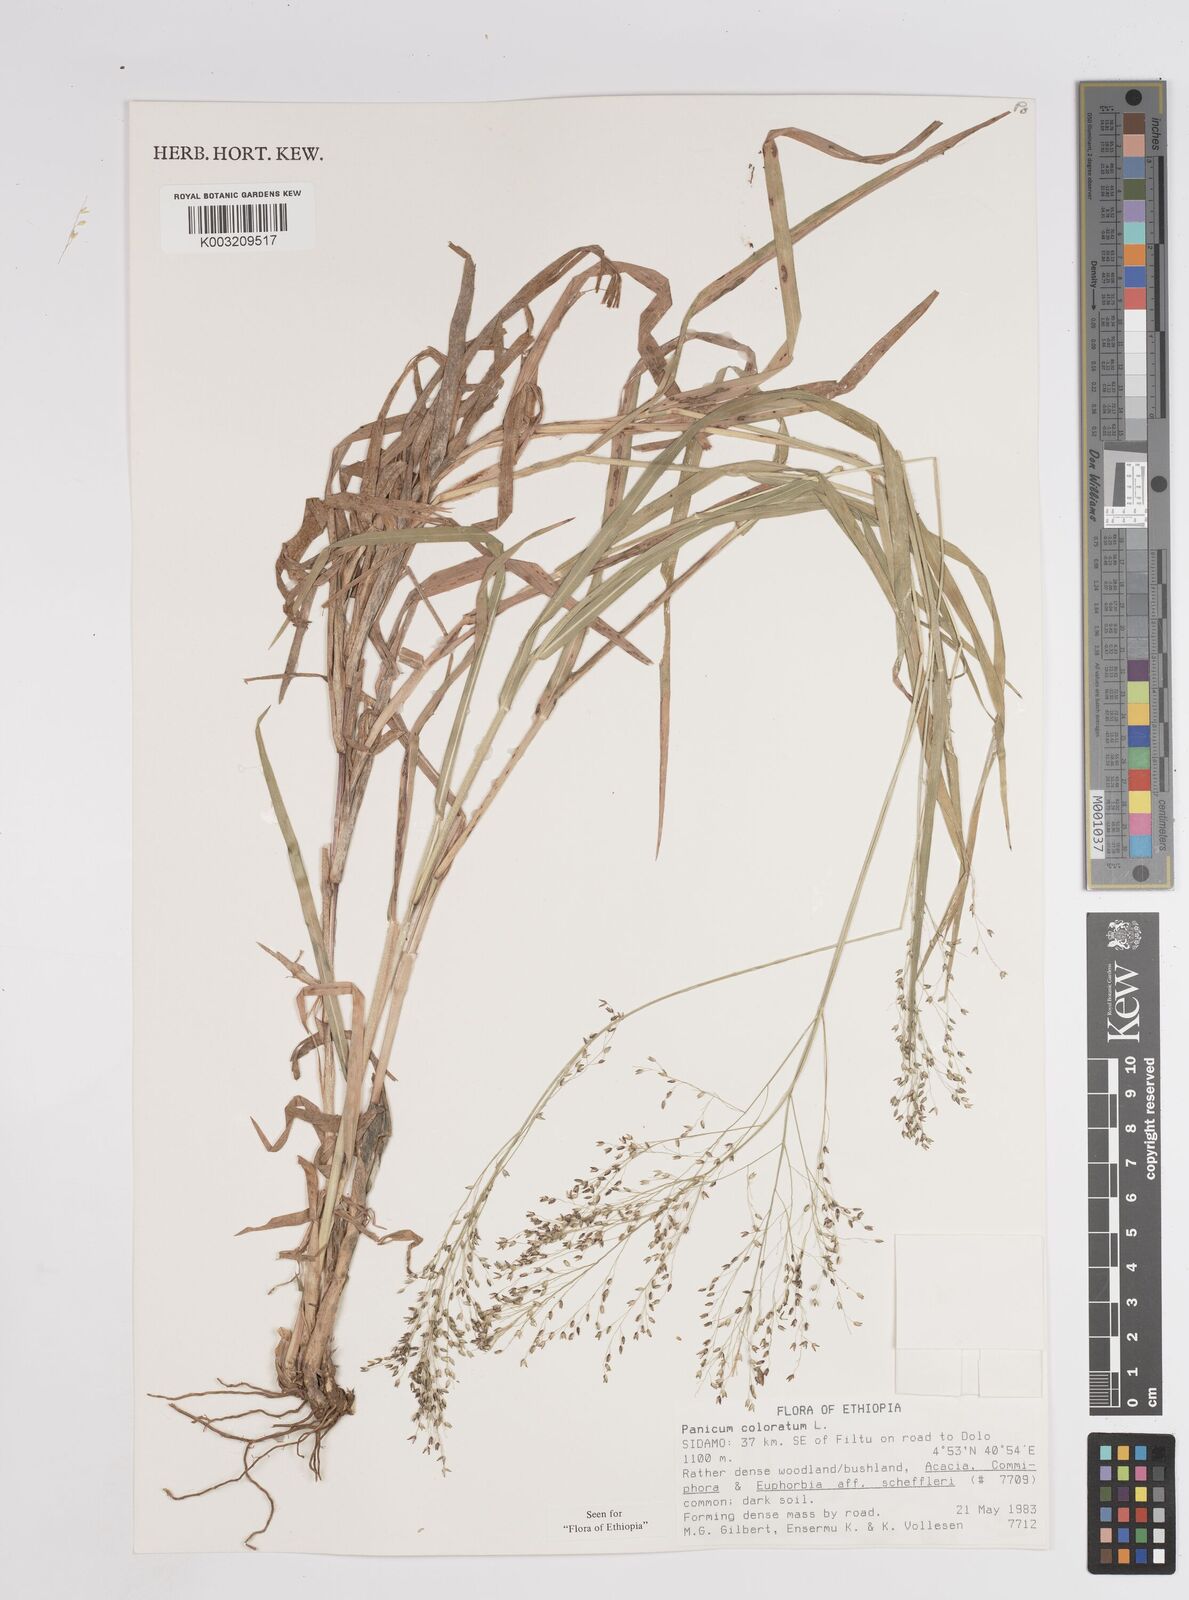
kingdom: Plantae
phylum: Tracheophyta
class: Liliopsida
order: Poales
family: Poaceae
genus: Panicum
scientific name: Panicum coloratum
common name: Kleingrass
